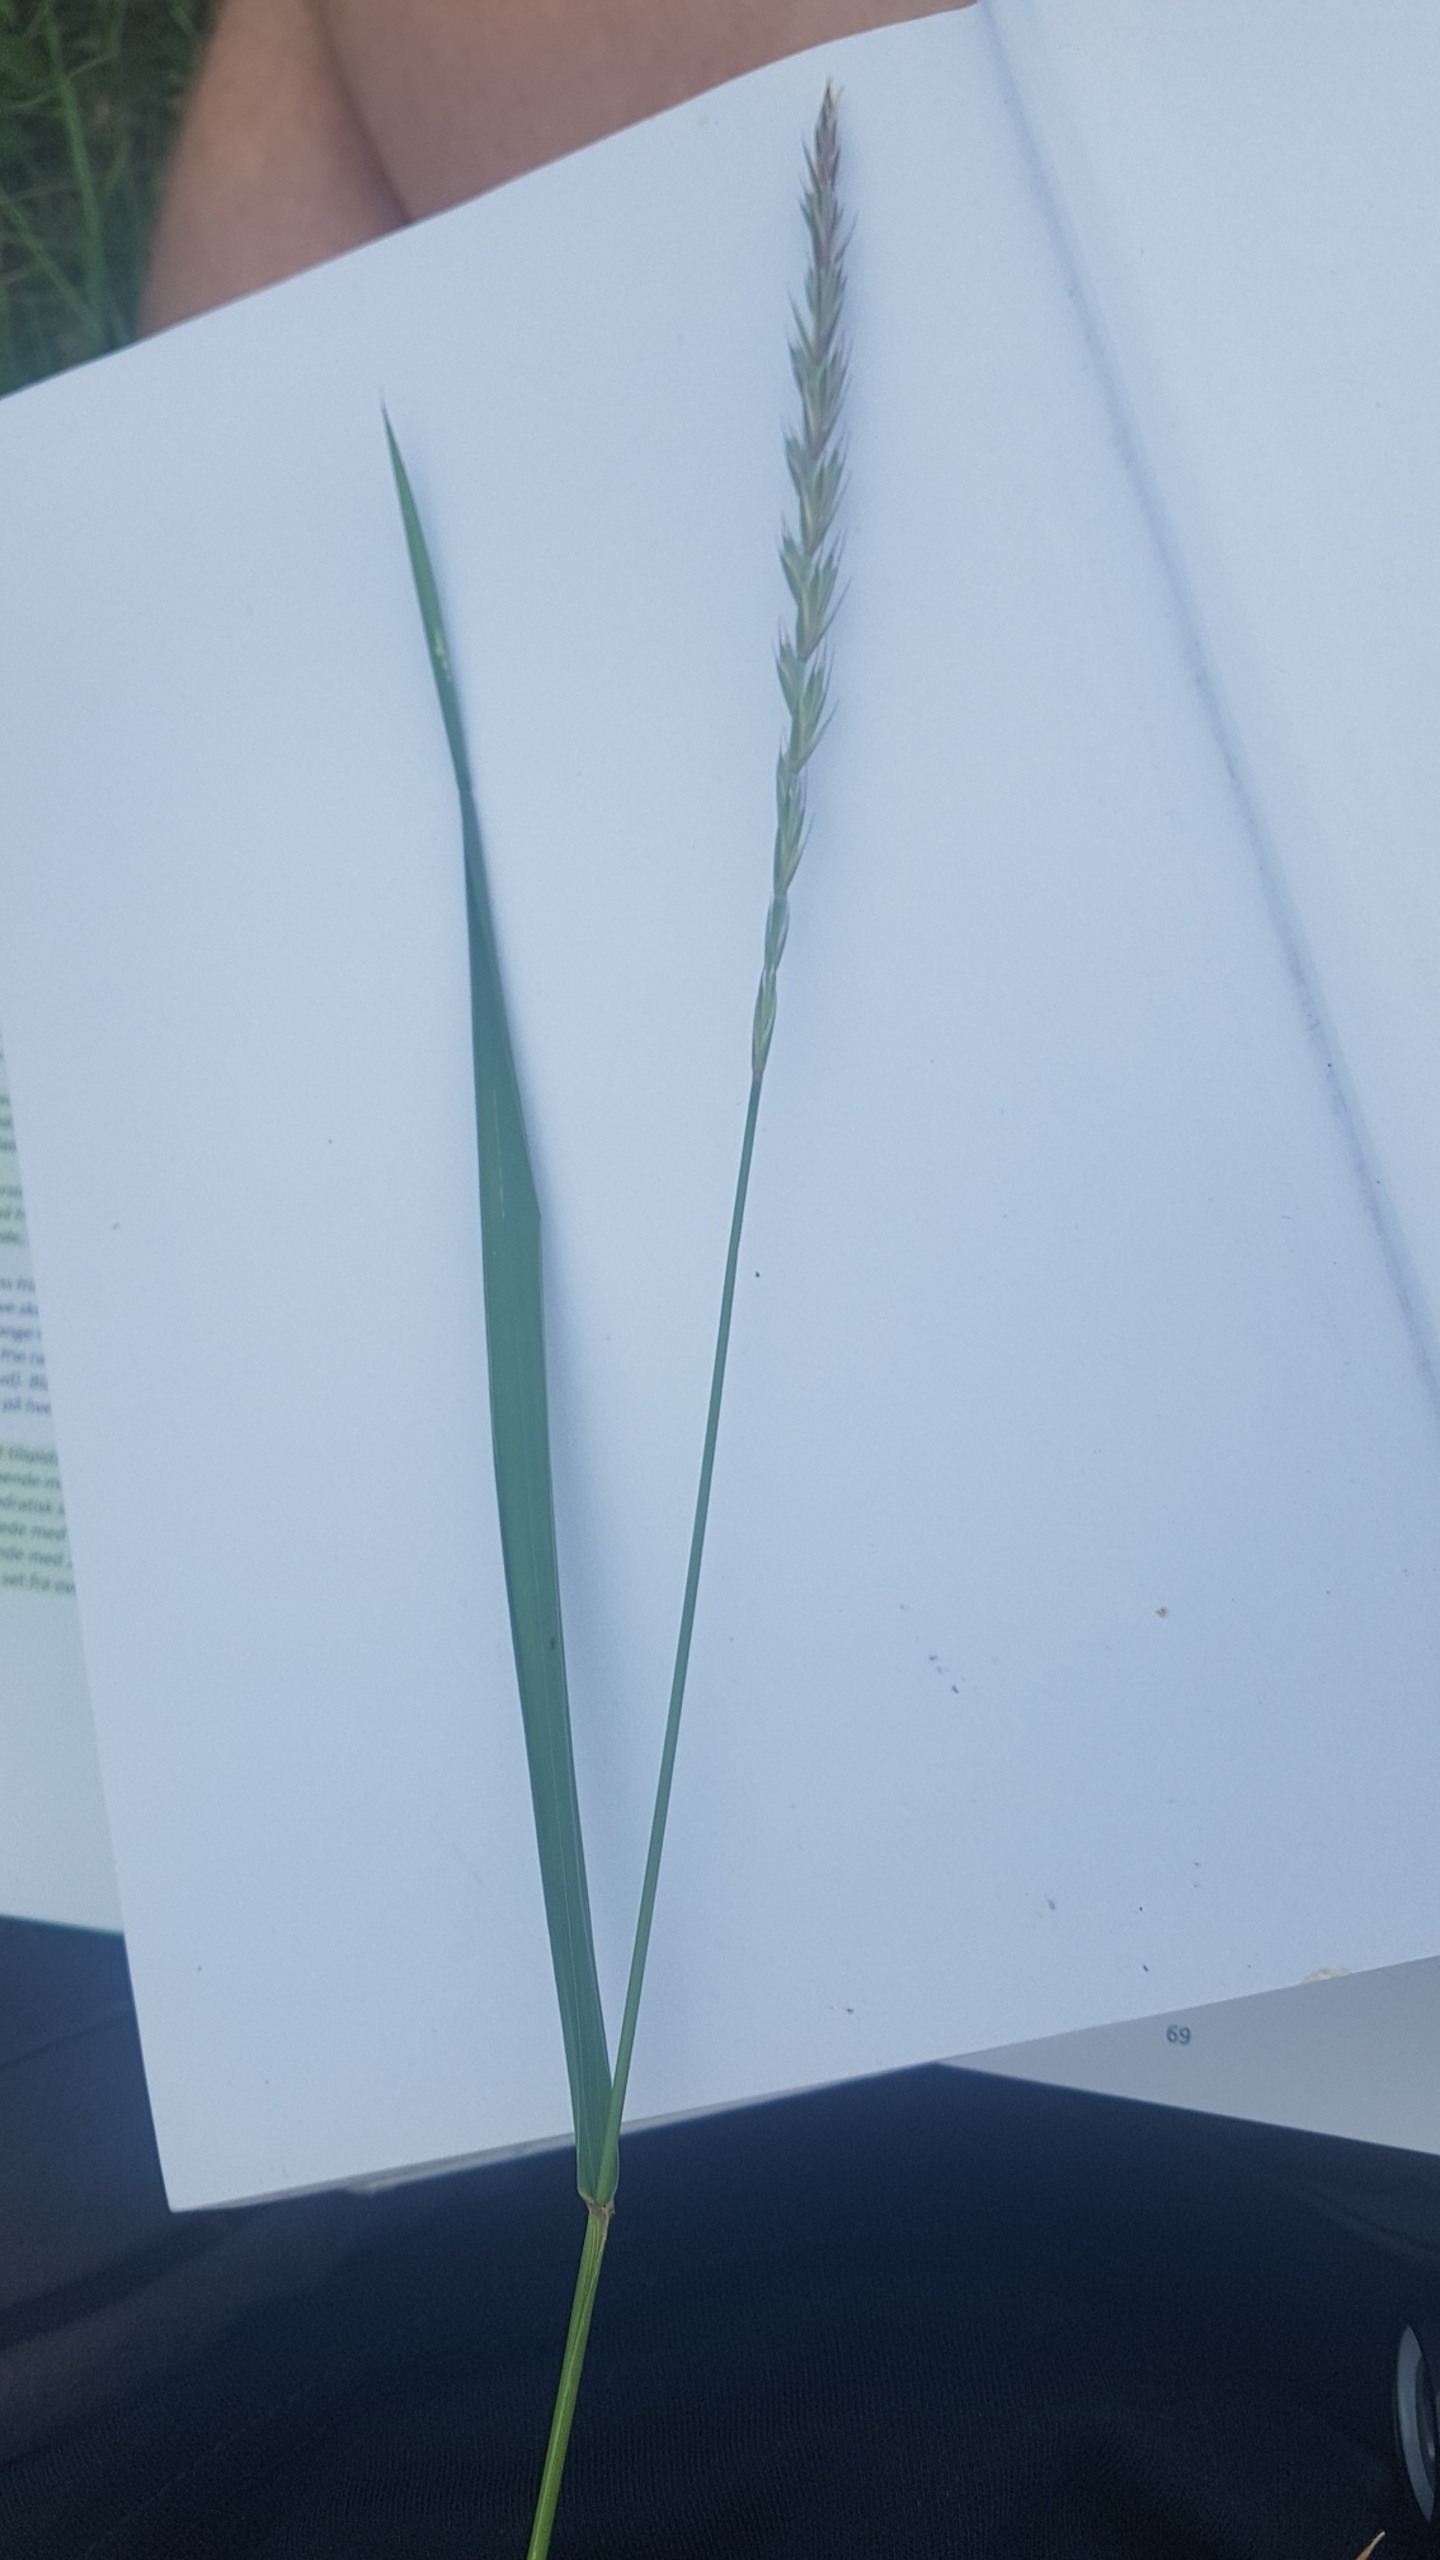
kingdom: Plantae
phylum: Tracheophyta
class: Liliopsida
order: Poales
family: Poaceae
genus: Elymus
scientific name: Elymus repens
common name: Almindelig kvik
